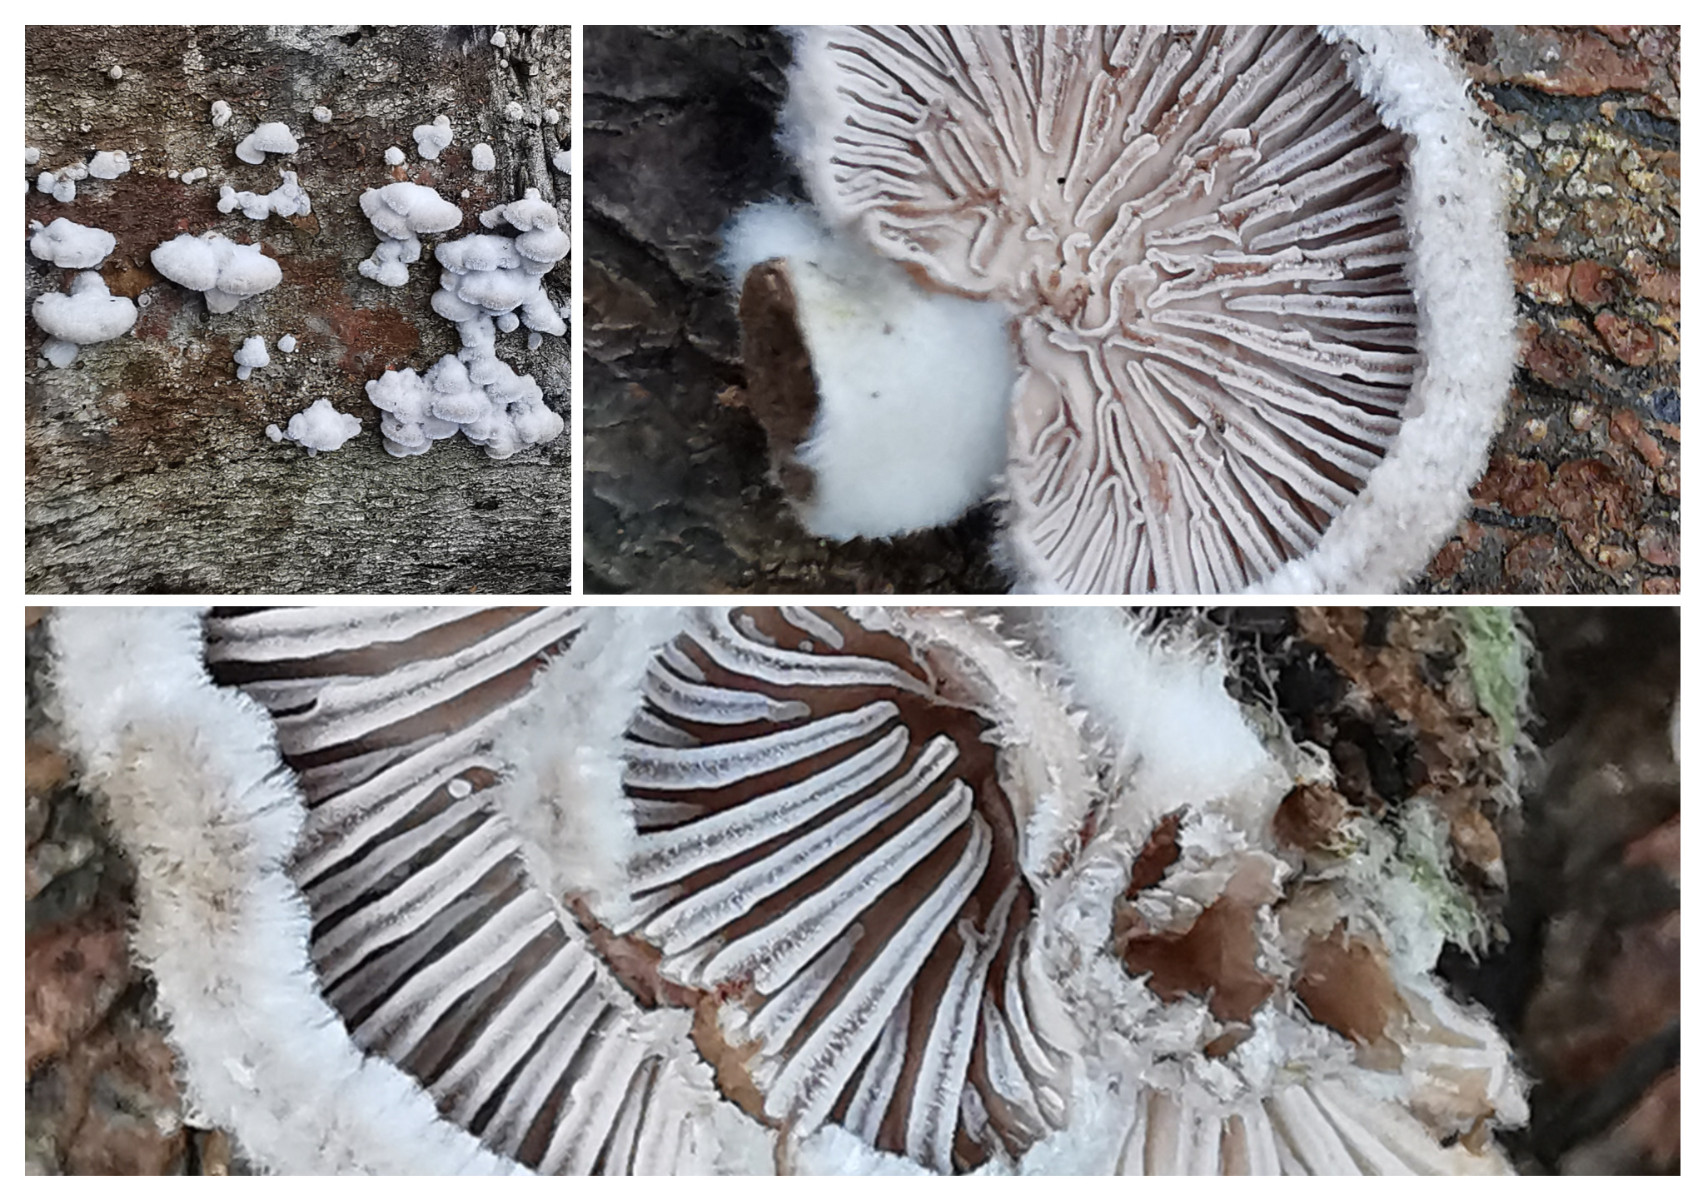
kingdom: Fungi
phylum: Basidiomycota
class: Agaricomycetes
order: Agaricales
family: Schizophyllaceae
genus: Schizophyllum
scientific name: Schizophyllum commune
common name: kløvblad
